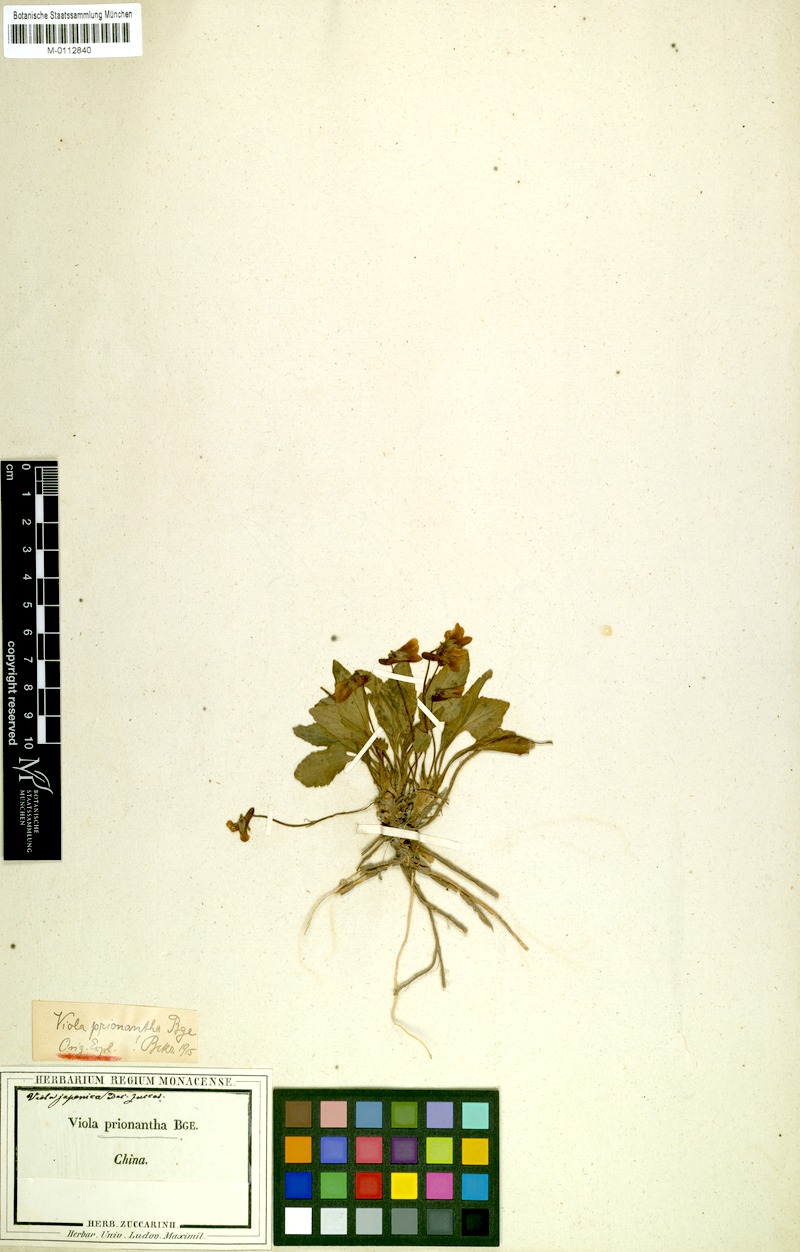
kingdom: Plantae
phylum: Tracheophyta
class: Magnoliopsida
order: Malpighiales
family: Violaceae
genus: Viola
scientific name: Viola prionantha
